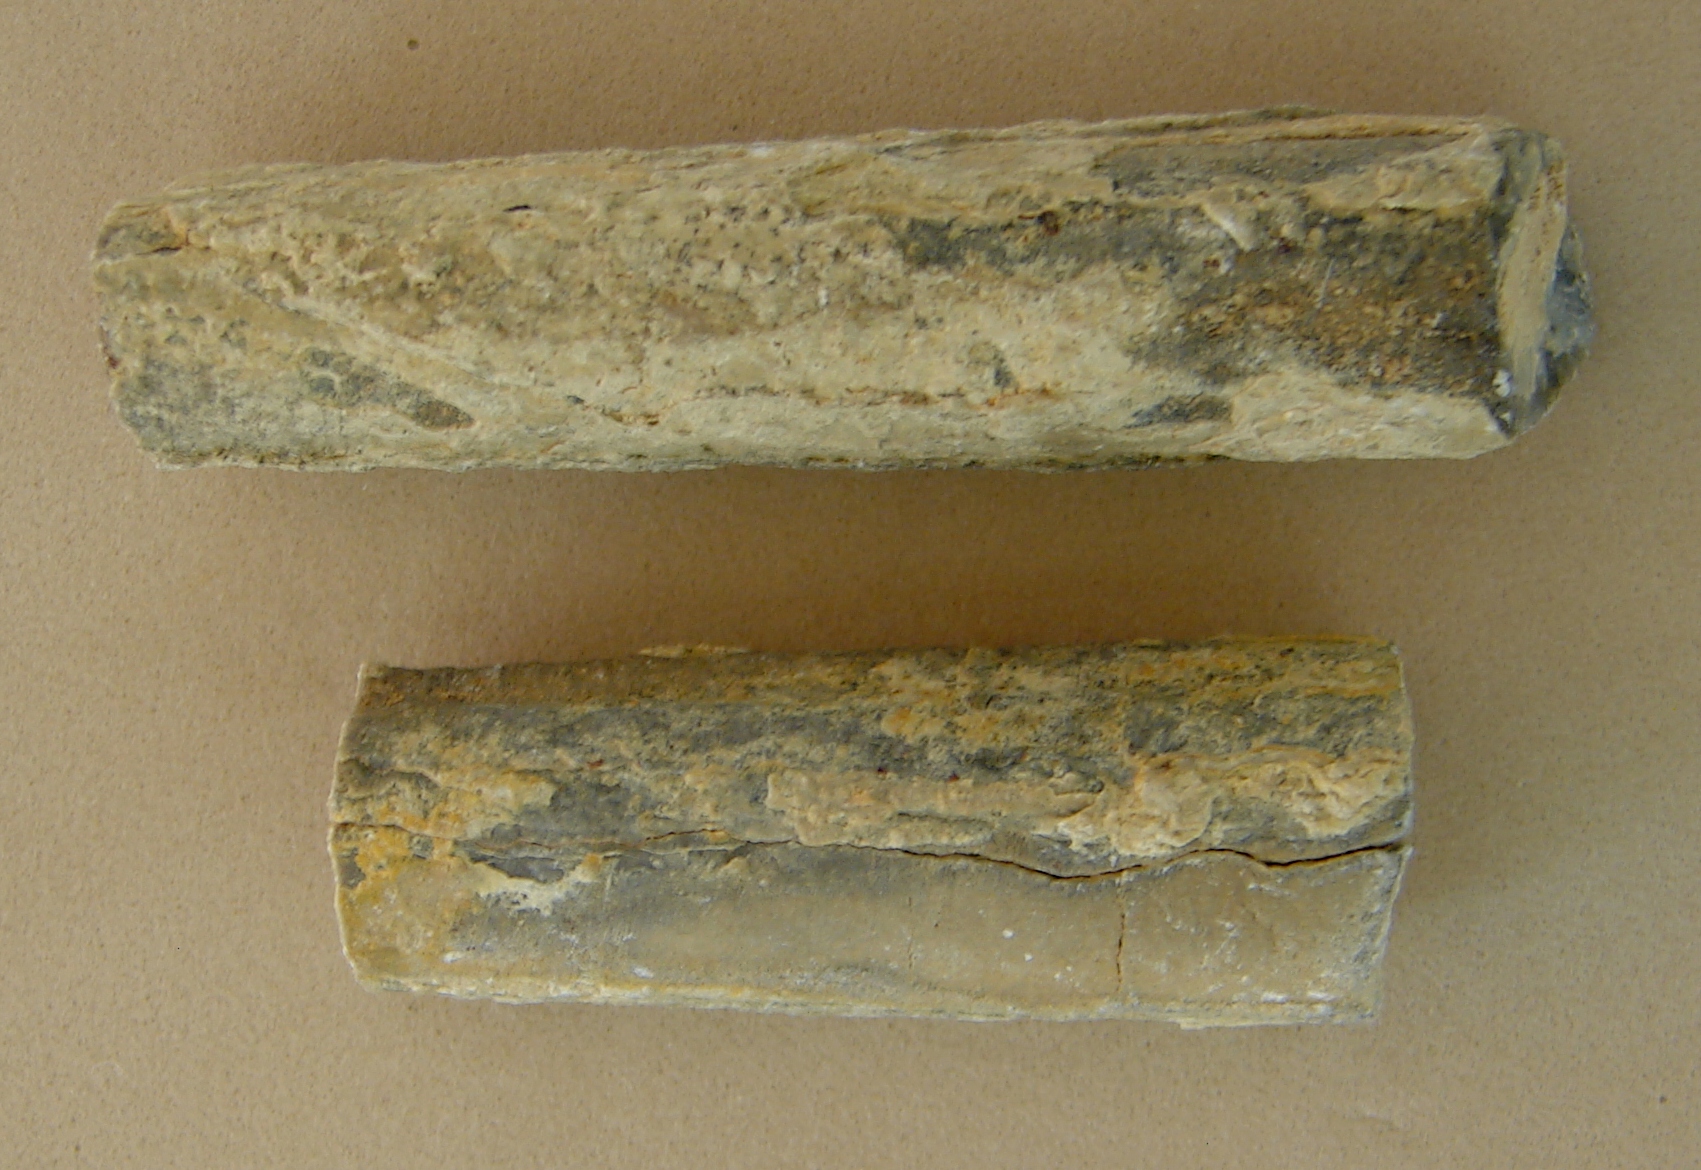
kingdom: Animalia
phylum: Mollusca
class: Cephalopoda
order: Belemnitida
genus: Holcobelus
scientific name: Holcobelus munieri
